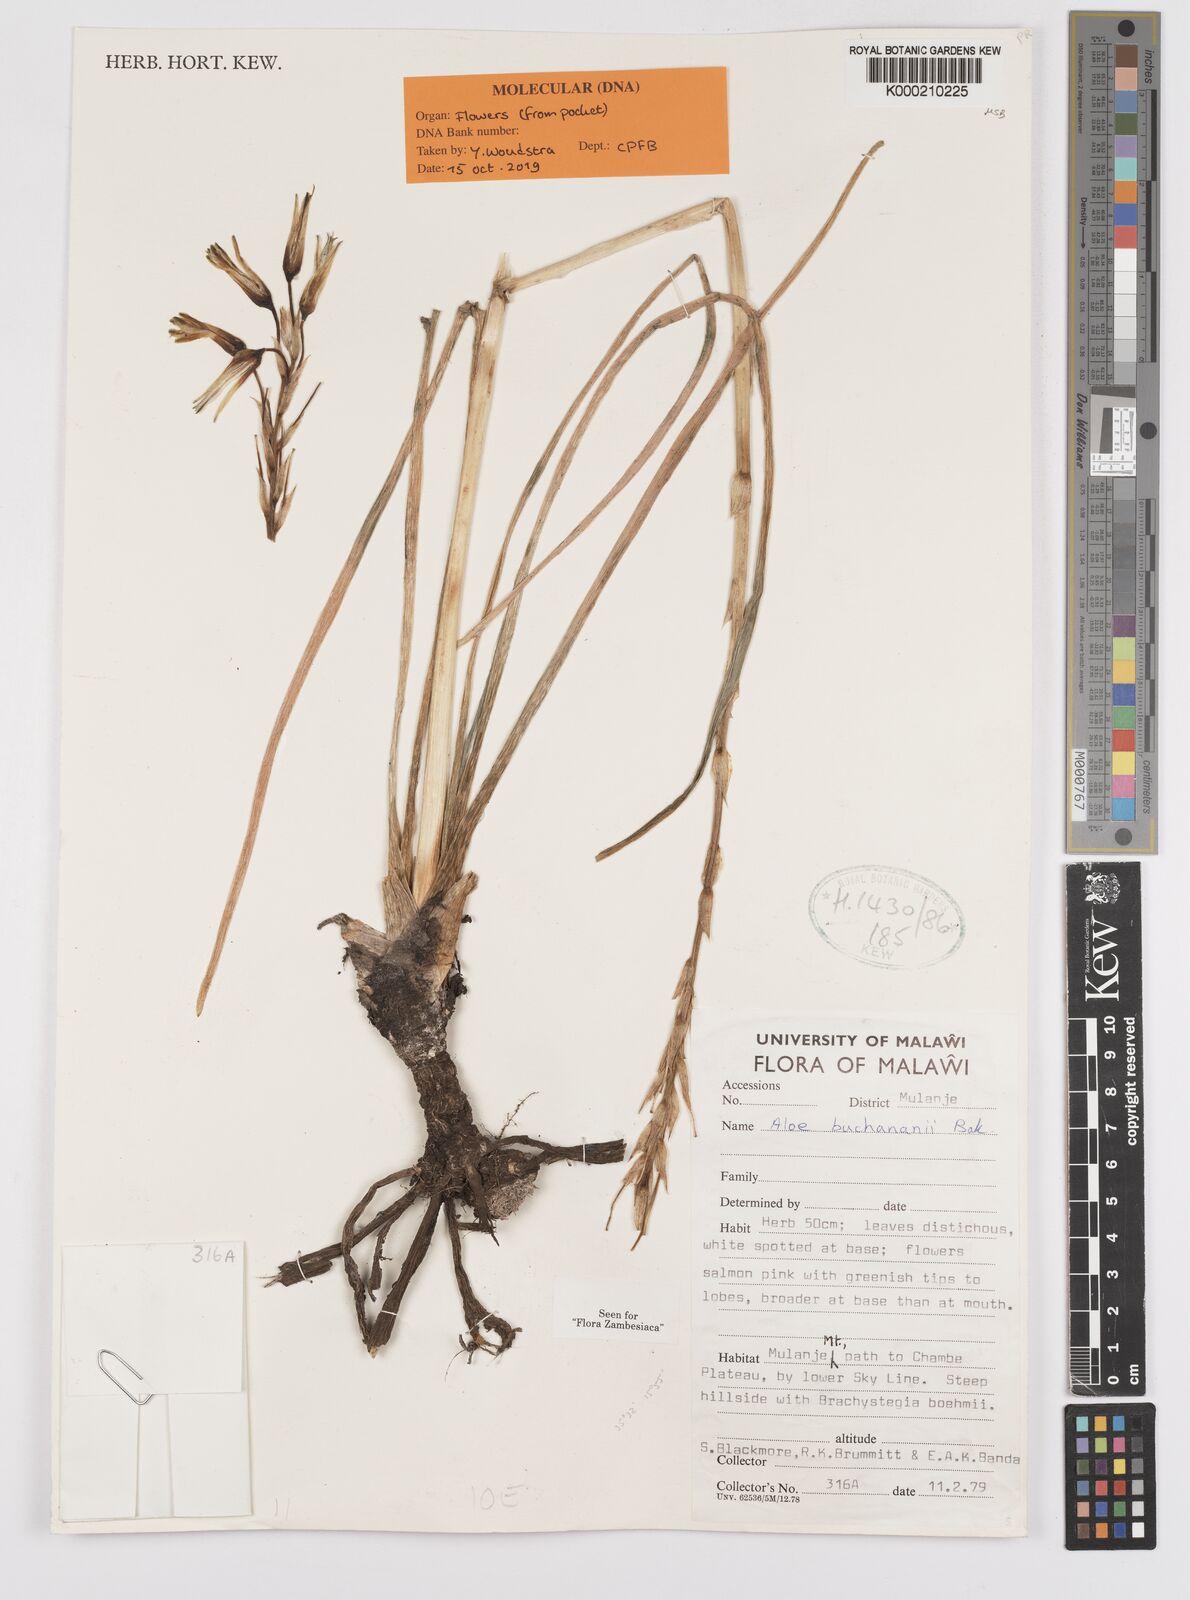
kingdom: Plantae
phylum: Tracheophyta
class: Liliopsida
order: Asparagales
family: Asphodelaceae
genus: Aloe
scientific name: Aloe buchananii
